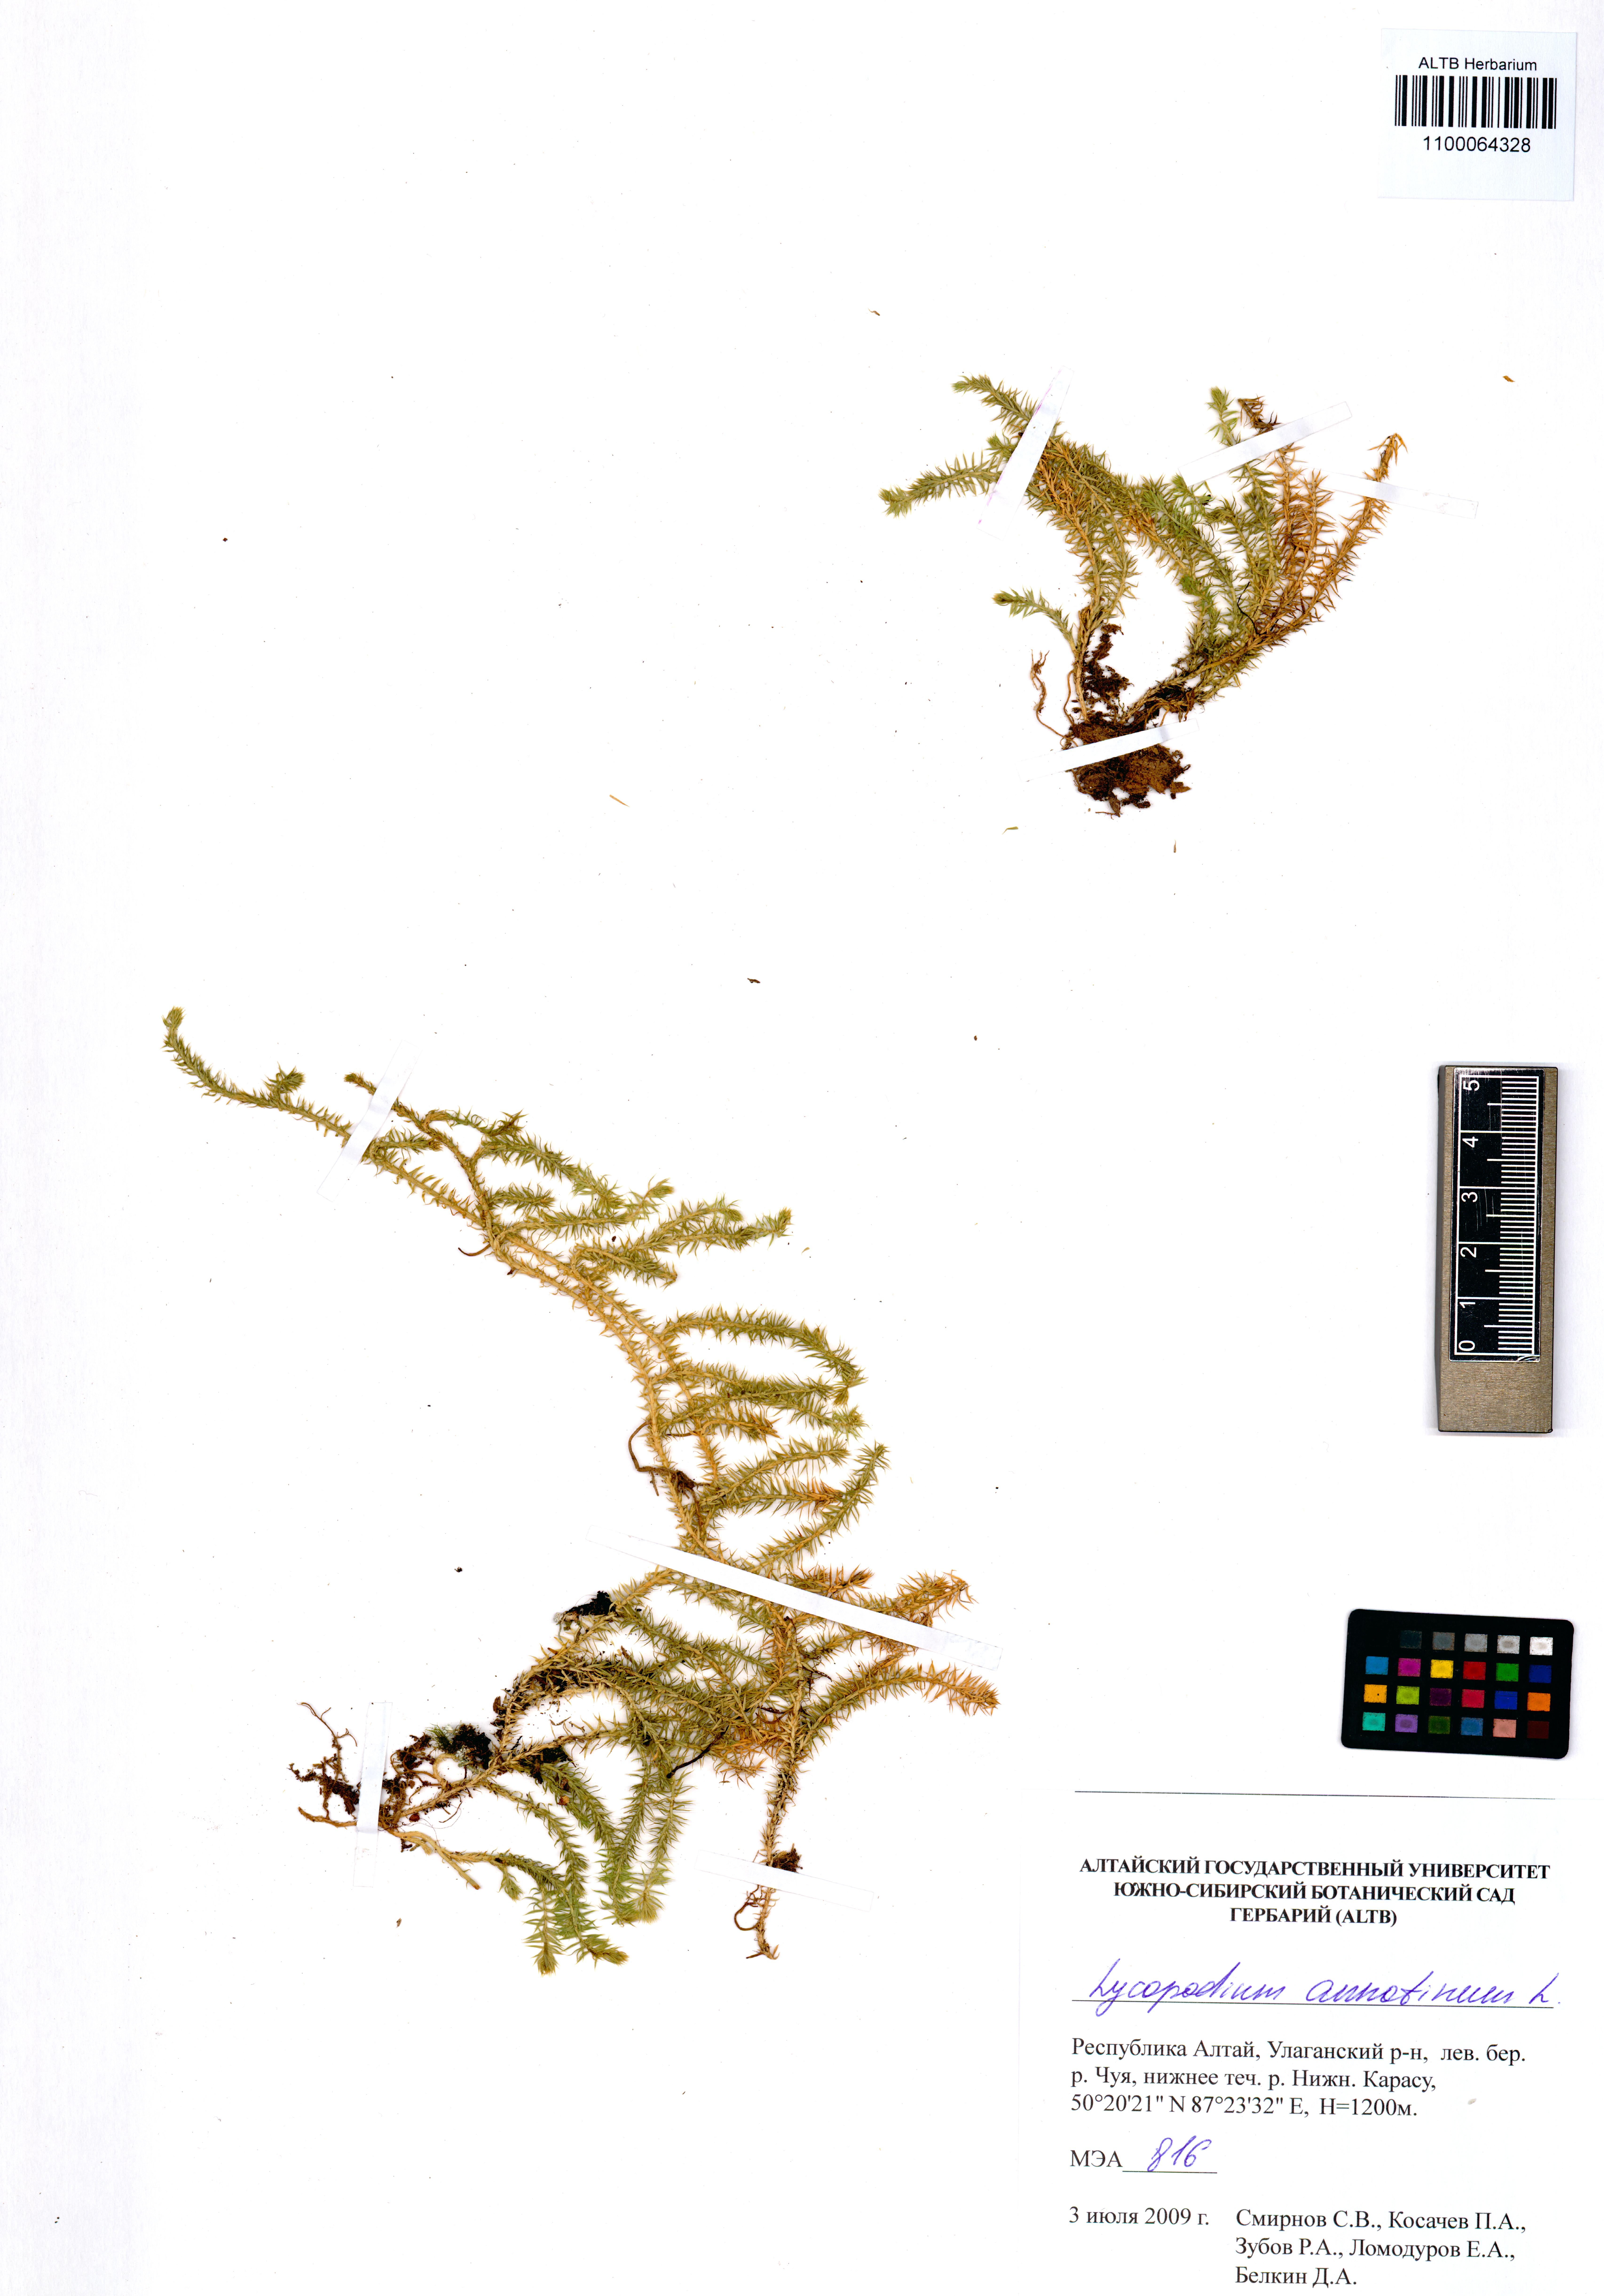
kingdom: Plantae
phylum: Tracheophyta
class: Lycopodiopsida
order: Lycopodiales
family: Lycopodiaceae
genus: Spinulum
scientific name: Spinulum annotinum
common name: Interrupted club-moss
